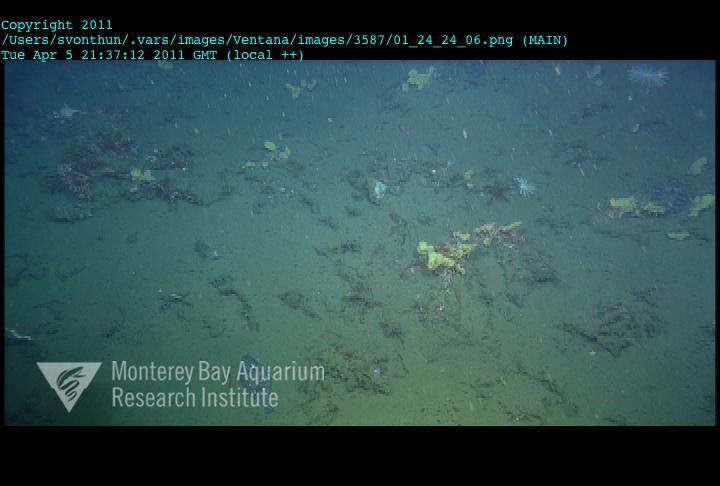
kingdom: Animalia
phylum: Porifera
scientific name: Porifera
